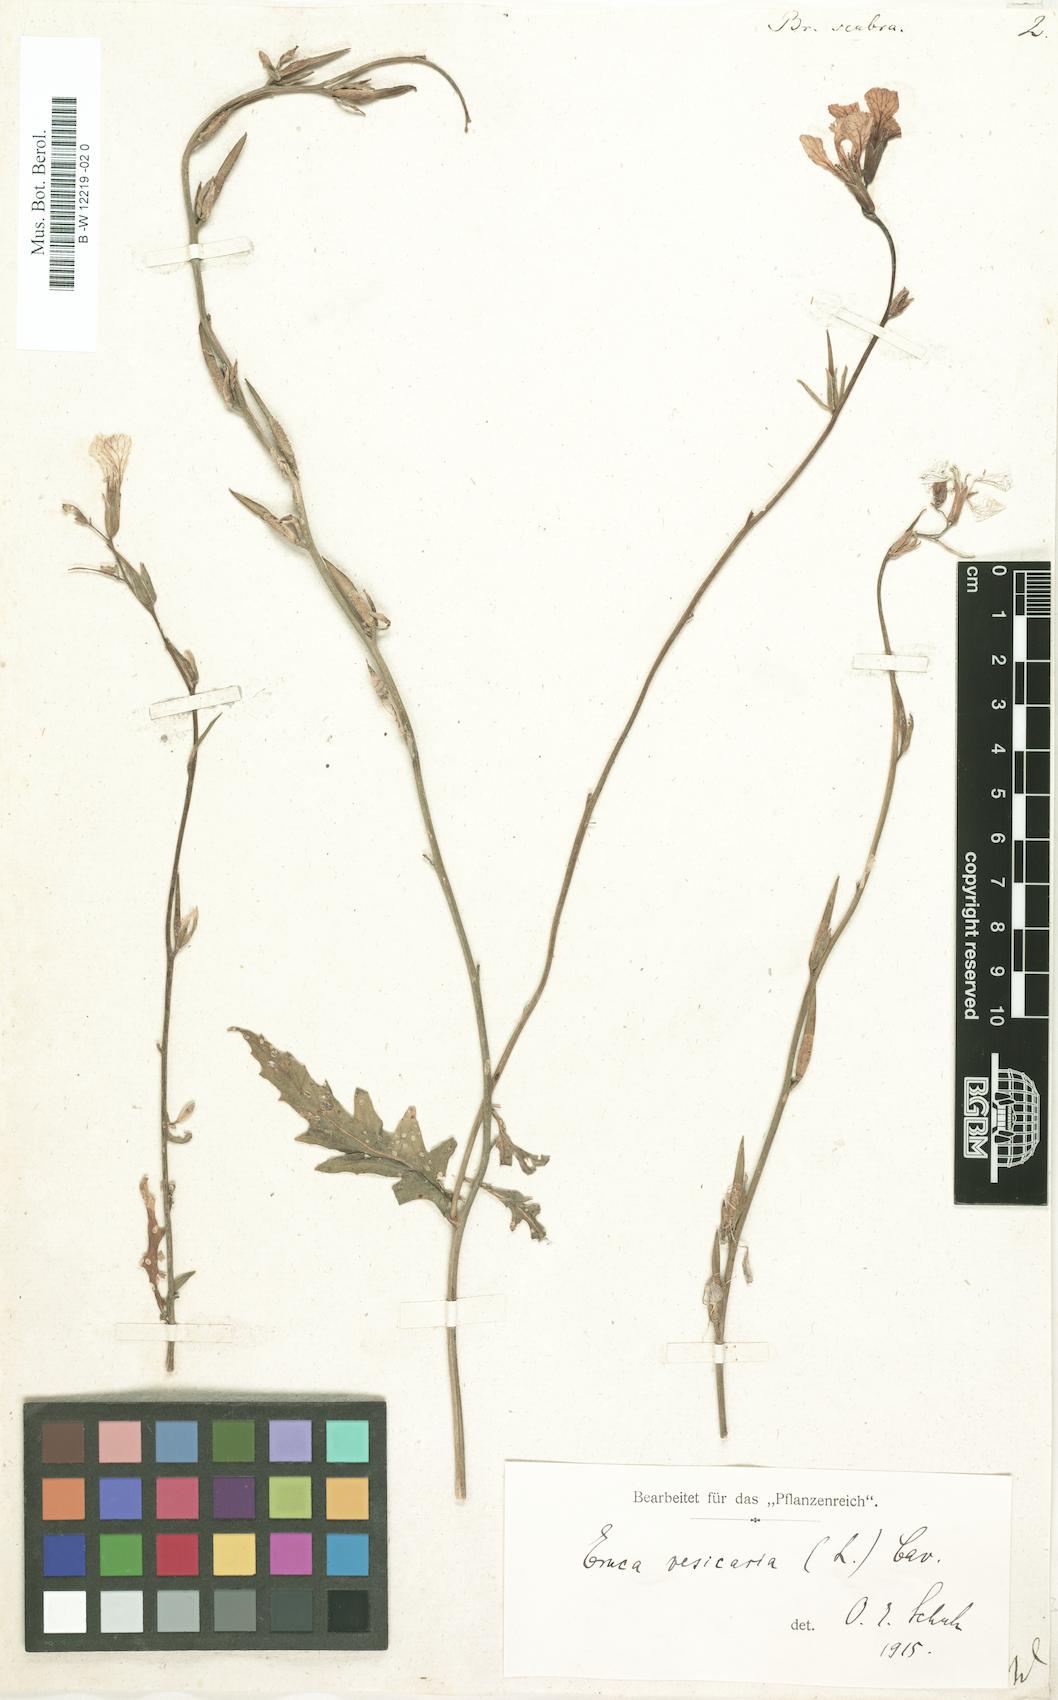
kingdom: Plantae
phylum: Tracheophyta
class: Magnoliopsida
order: Brassicales
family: Brassicaceae
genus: Brassica
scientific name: Brassica
